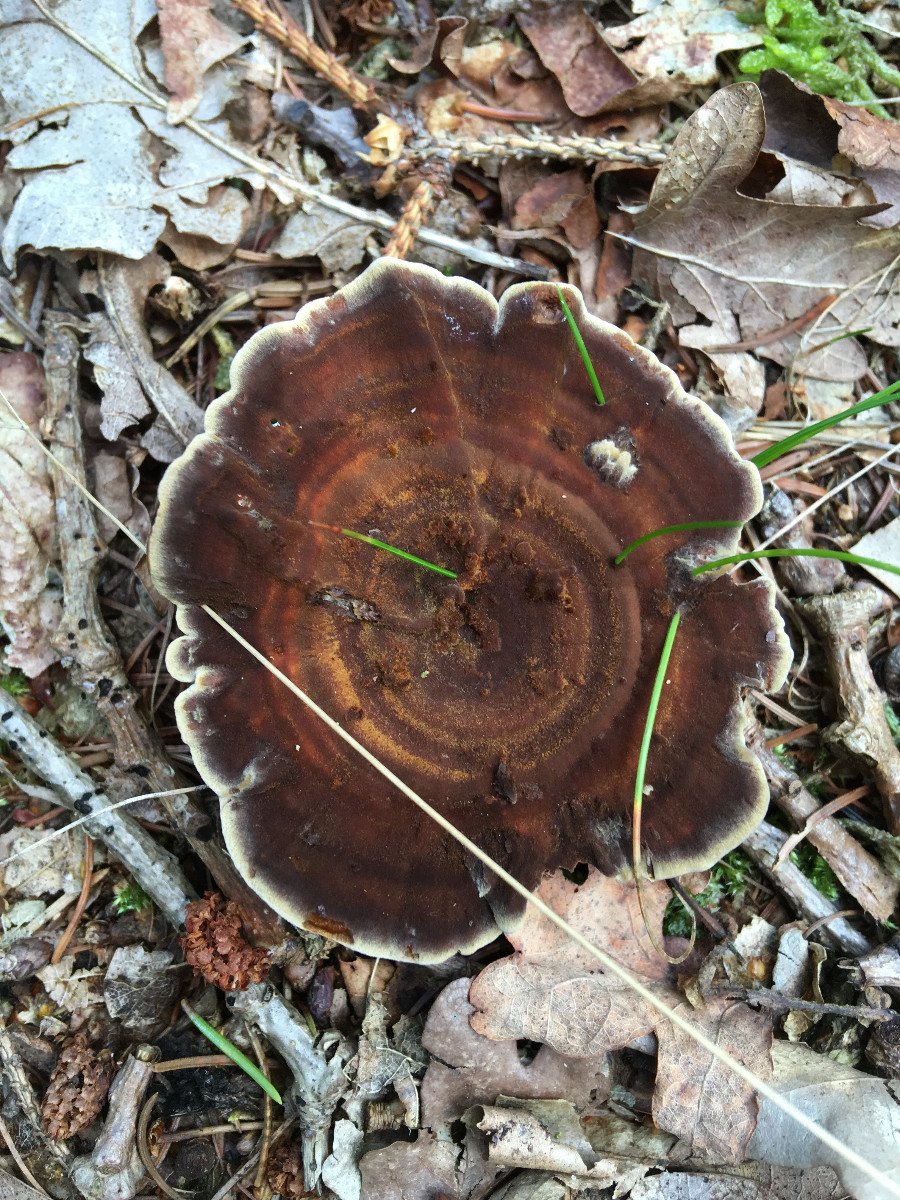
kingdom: Fungi
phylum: Basidiomycota
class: Agaricomycetes
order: Hymenochaetales
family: Hymenochaetaceae
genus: Coltricia
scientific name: Coltricia perennis
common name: almindelig sandporesvamp
